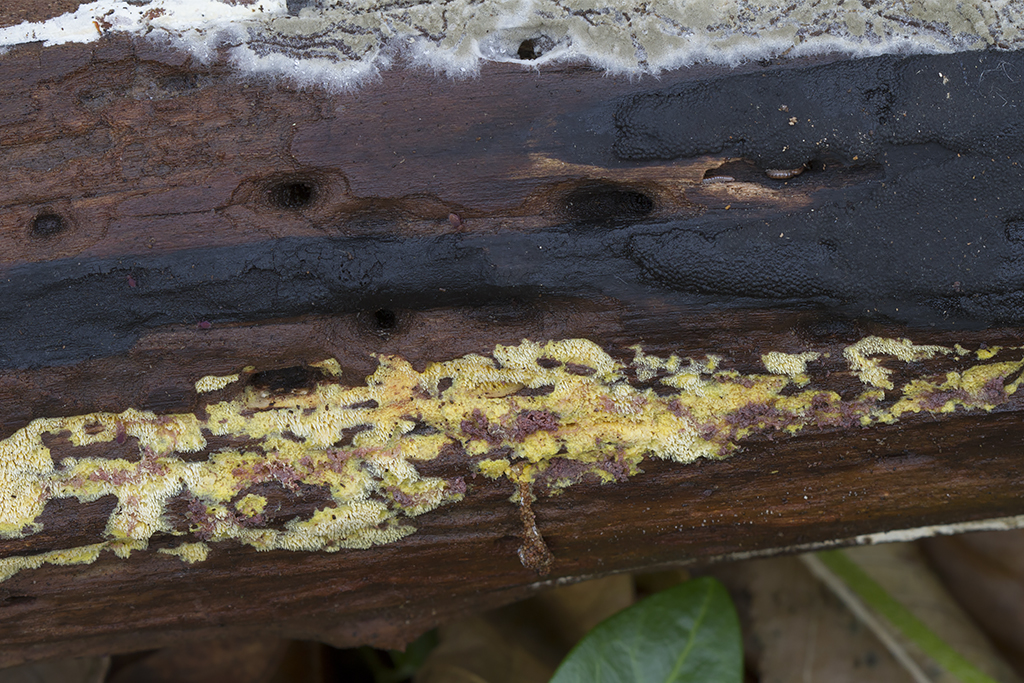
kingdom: Fungi
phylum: Basidiomycota
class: Agaricomycetes
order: Polyporales
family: Meruliaceae
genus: Mycoacia
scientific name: Mycoacia uda
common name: citrongul vokspig
